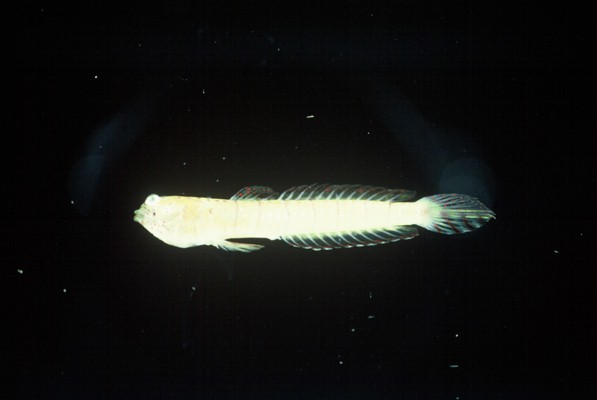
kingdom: Animalia
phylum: Chordata
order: Perciformes
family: Gobiidae
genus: Croilia
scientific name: Croilia mossambica
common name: Burrowing goby
